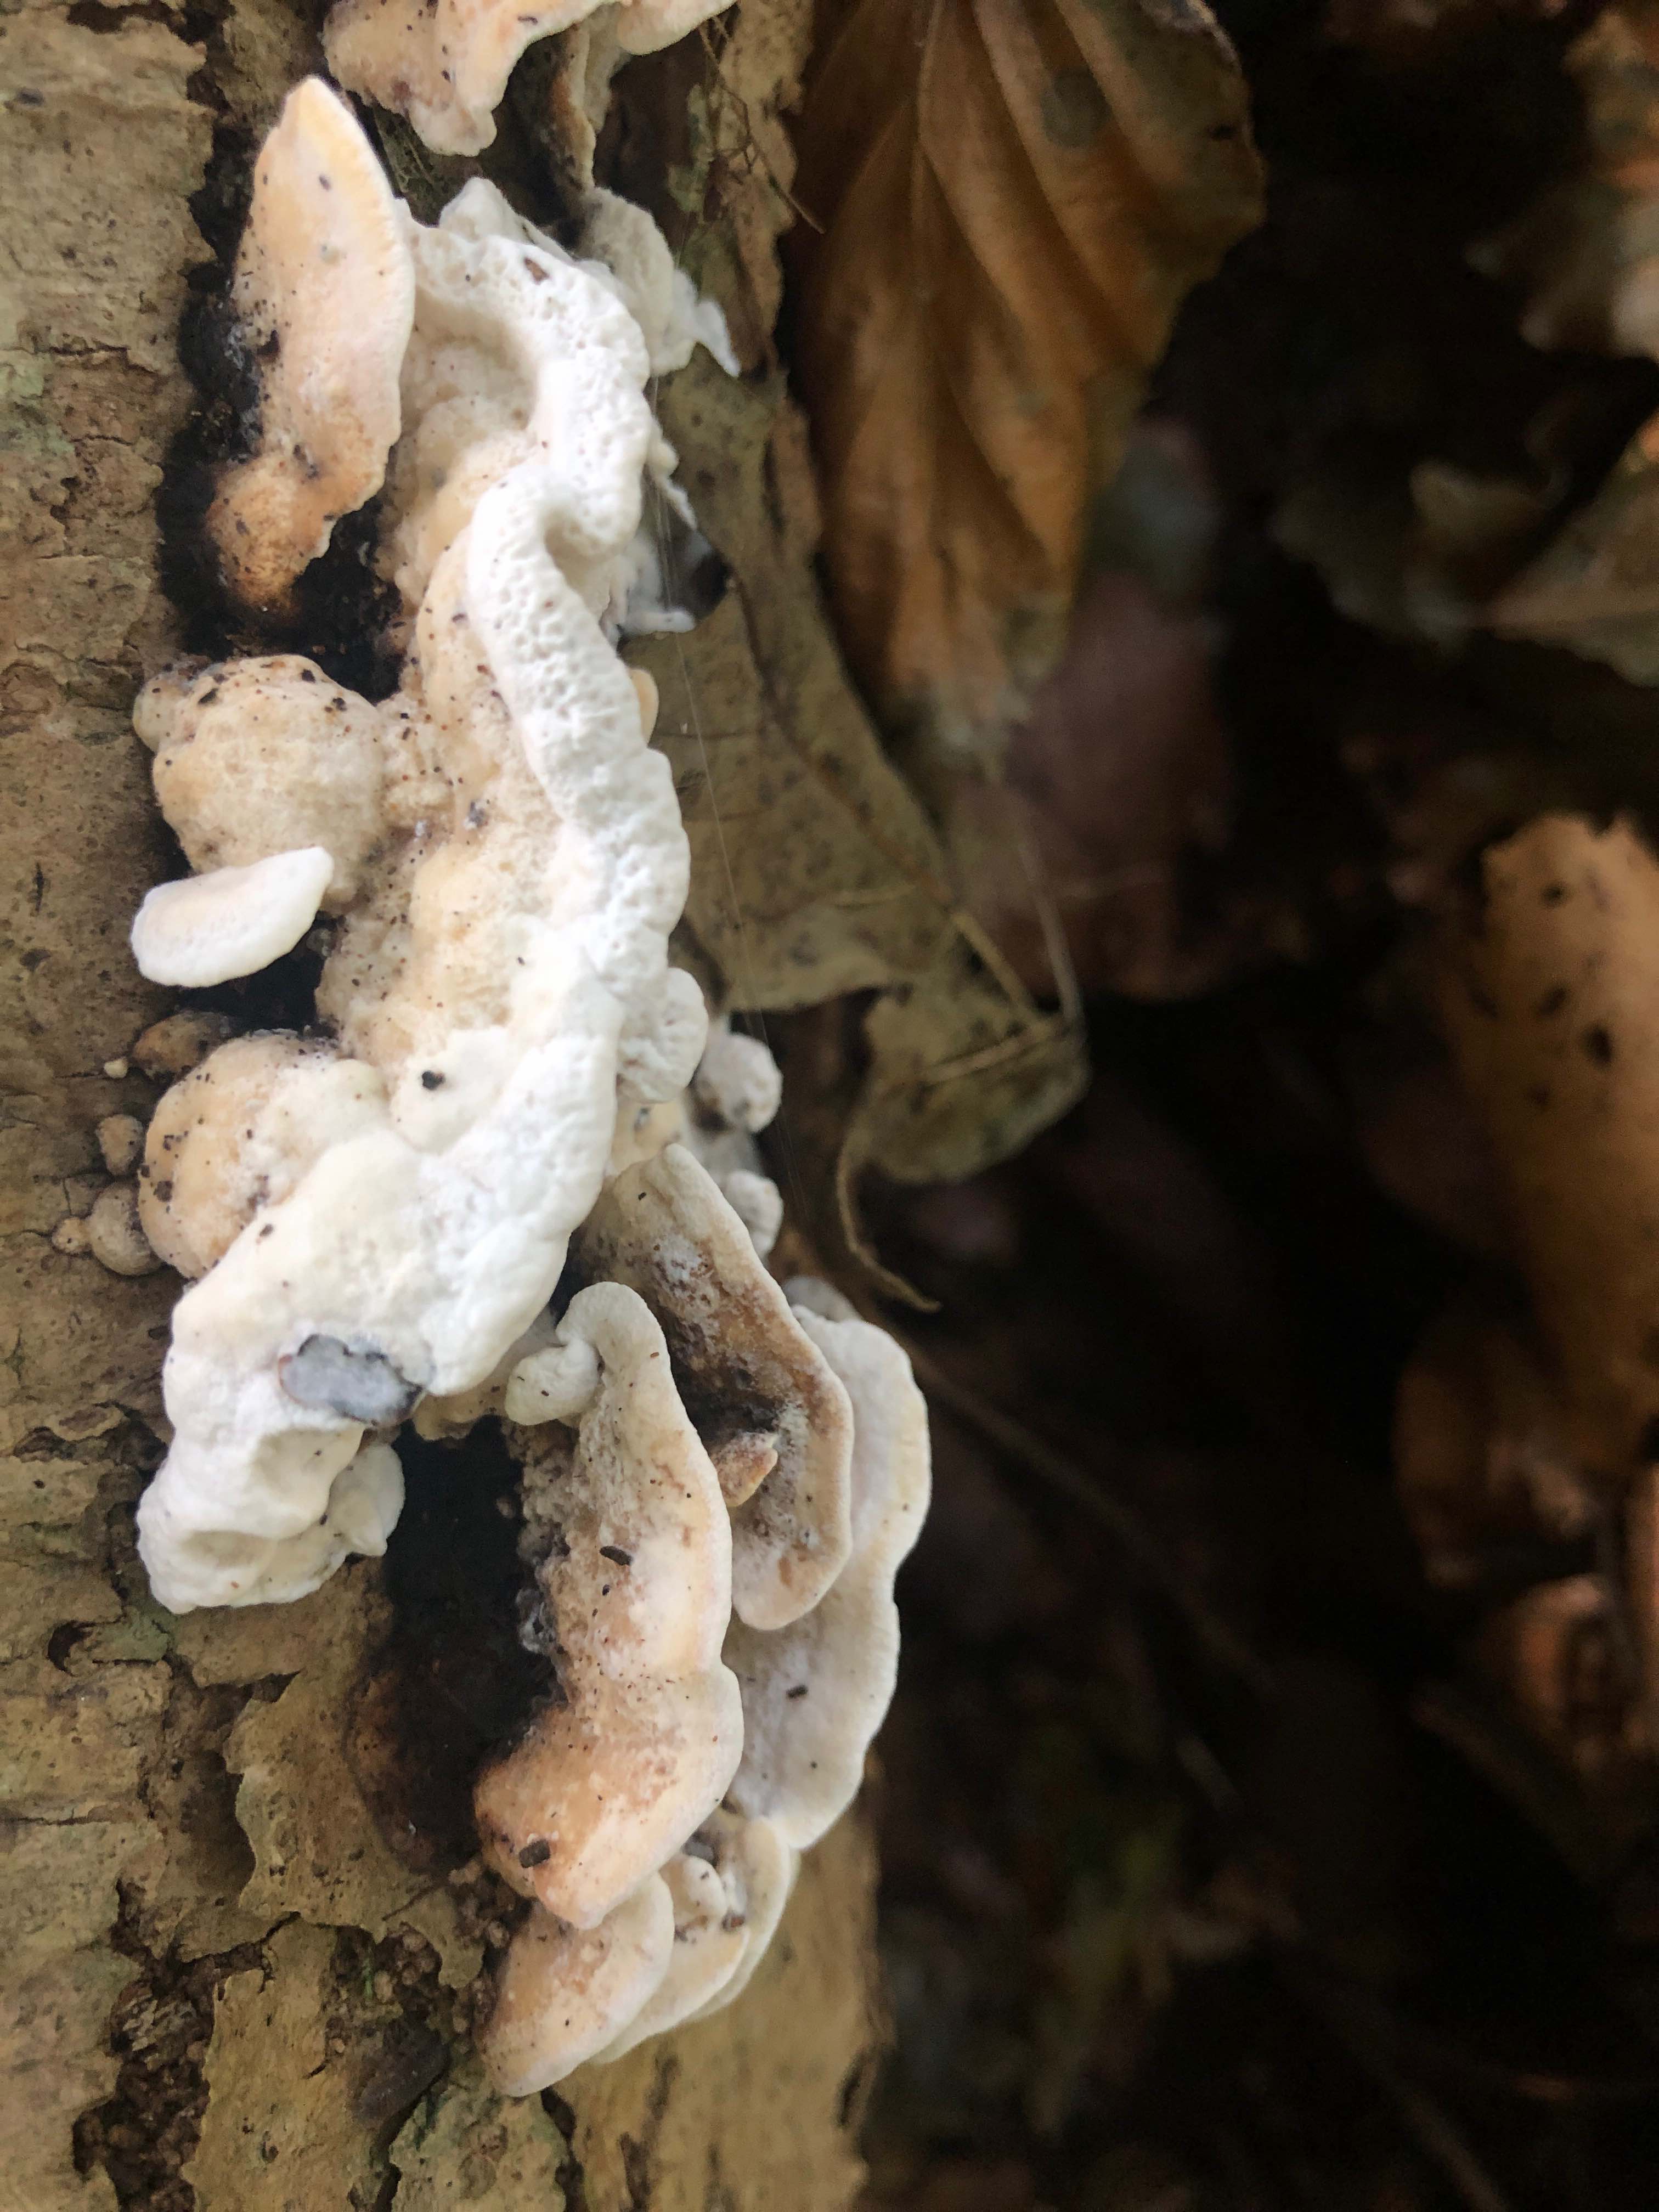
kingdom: Fungi
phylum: Basidiomycota
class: Agaricomycetes
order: Polyporales
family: Incrustoporiaceae
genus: Skeletocutis
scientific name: Skeletocutis nemoralis
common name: stor krystalporesvamp
